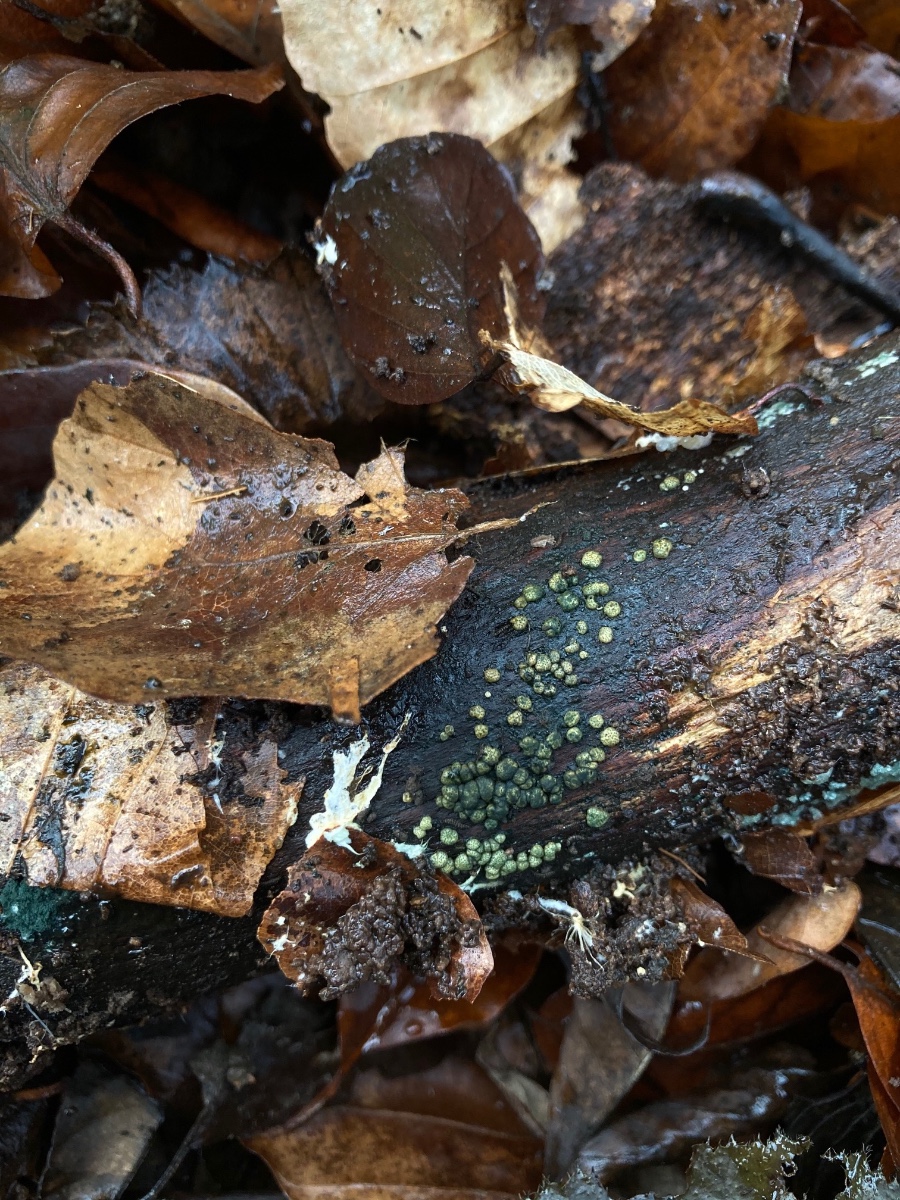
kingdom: Fungi
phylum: Ascomycota
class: Sordariomycetes
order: Hypocreales
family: Hypocreaceae
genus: Trichoderma
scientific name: Trichoderma strictipile
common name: grønprikket kødkerne
